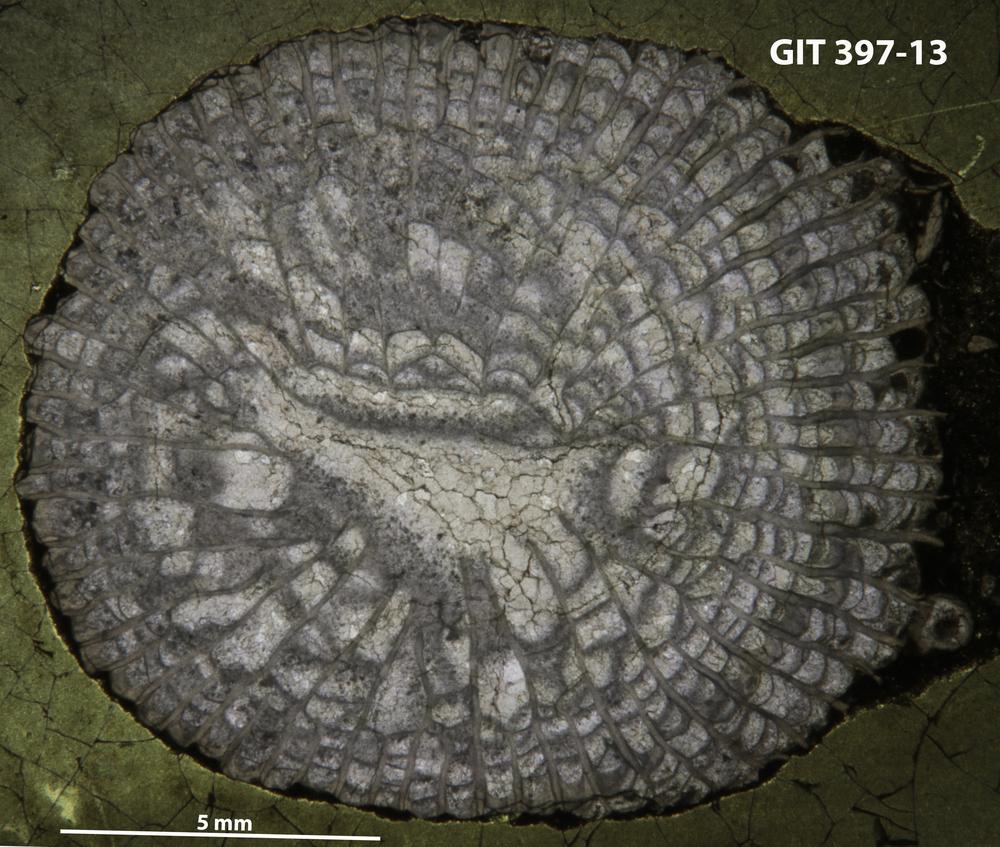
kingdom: Animalia
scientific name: Animalia
